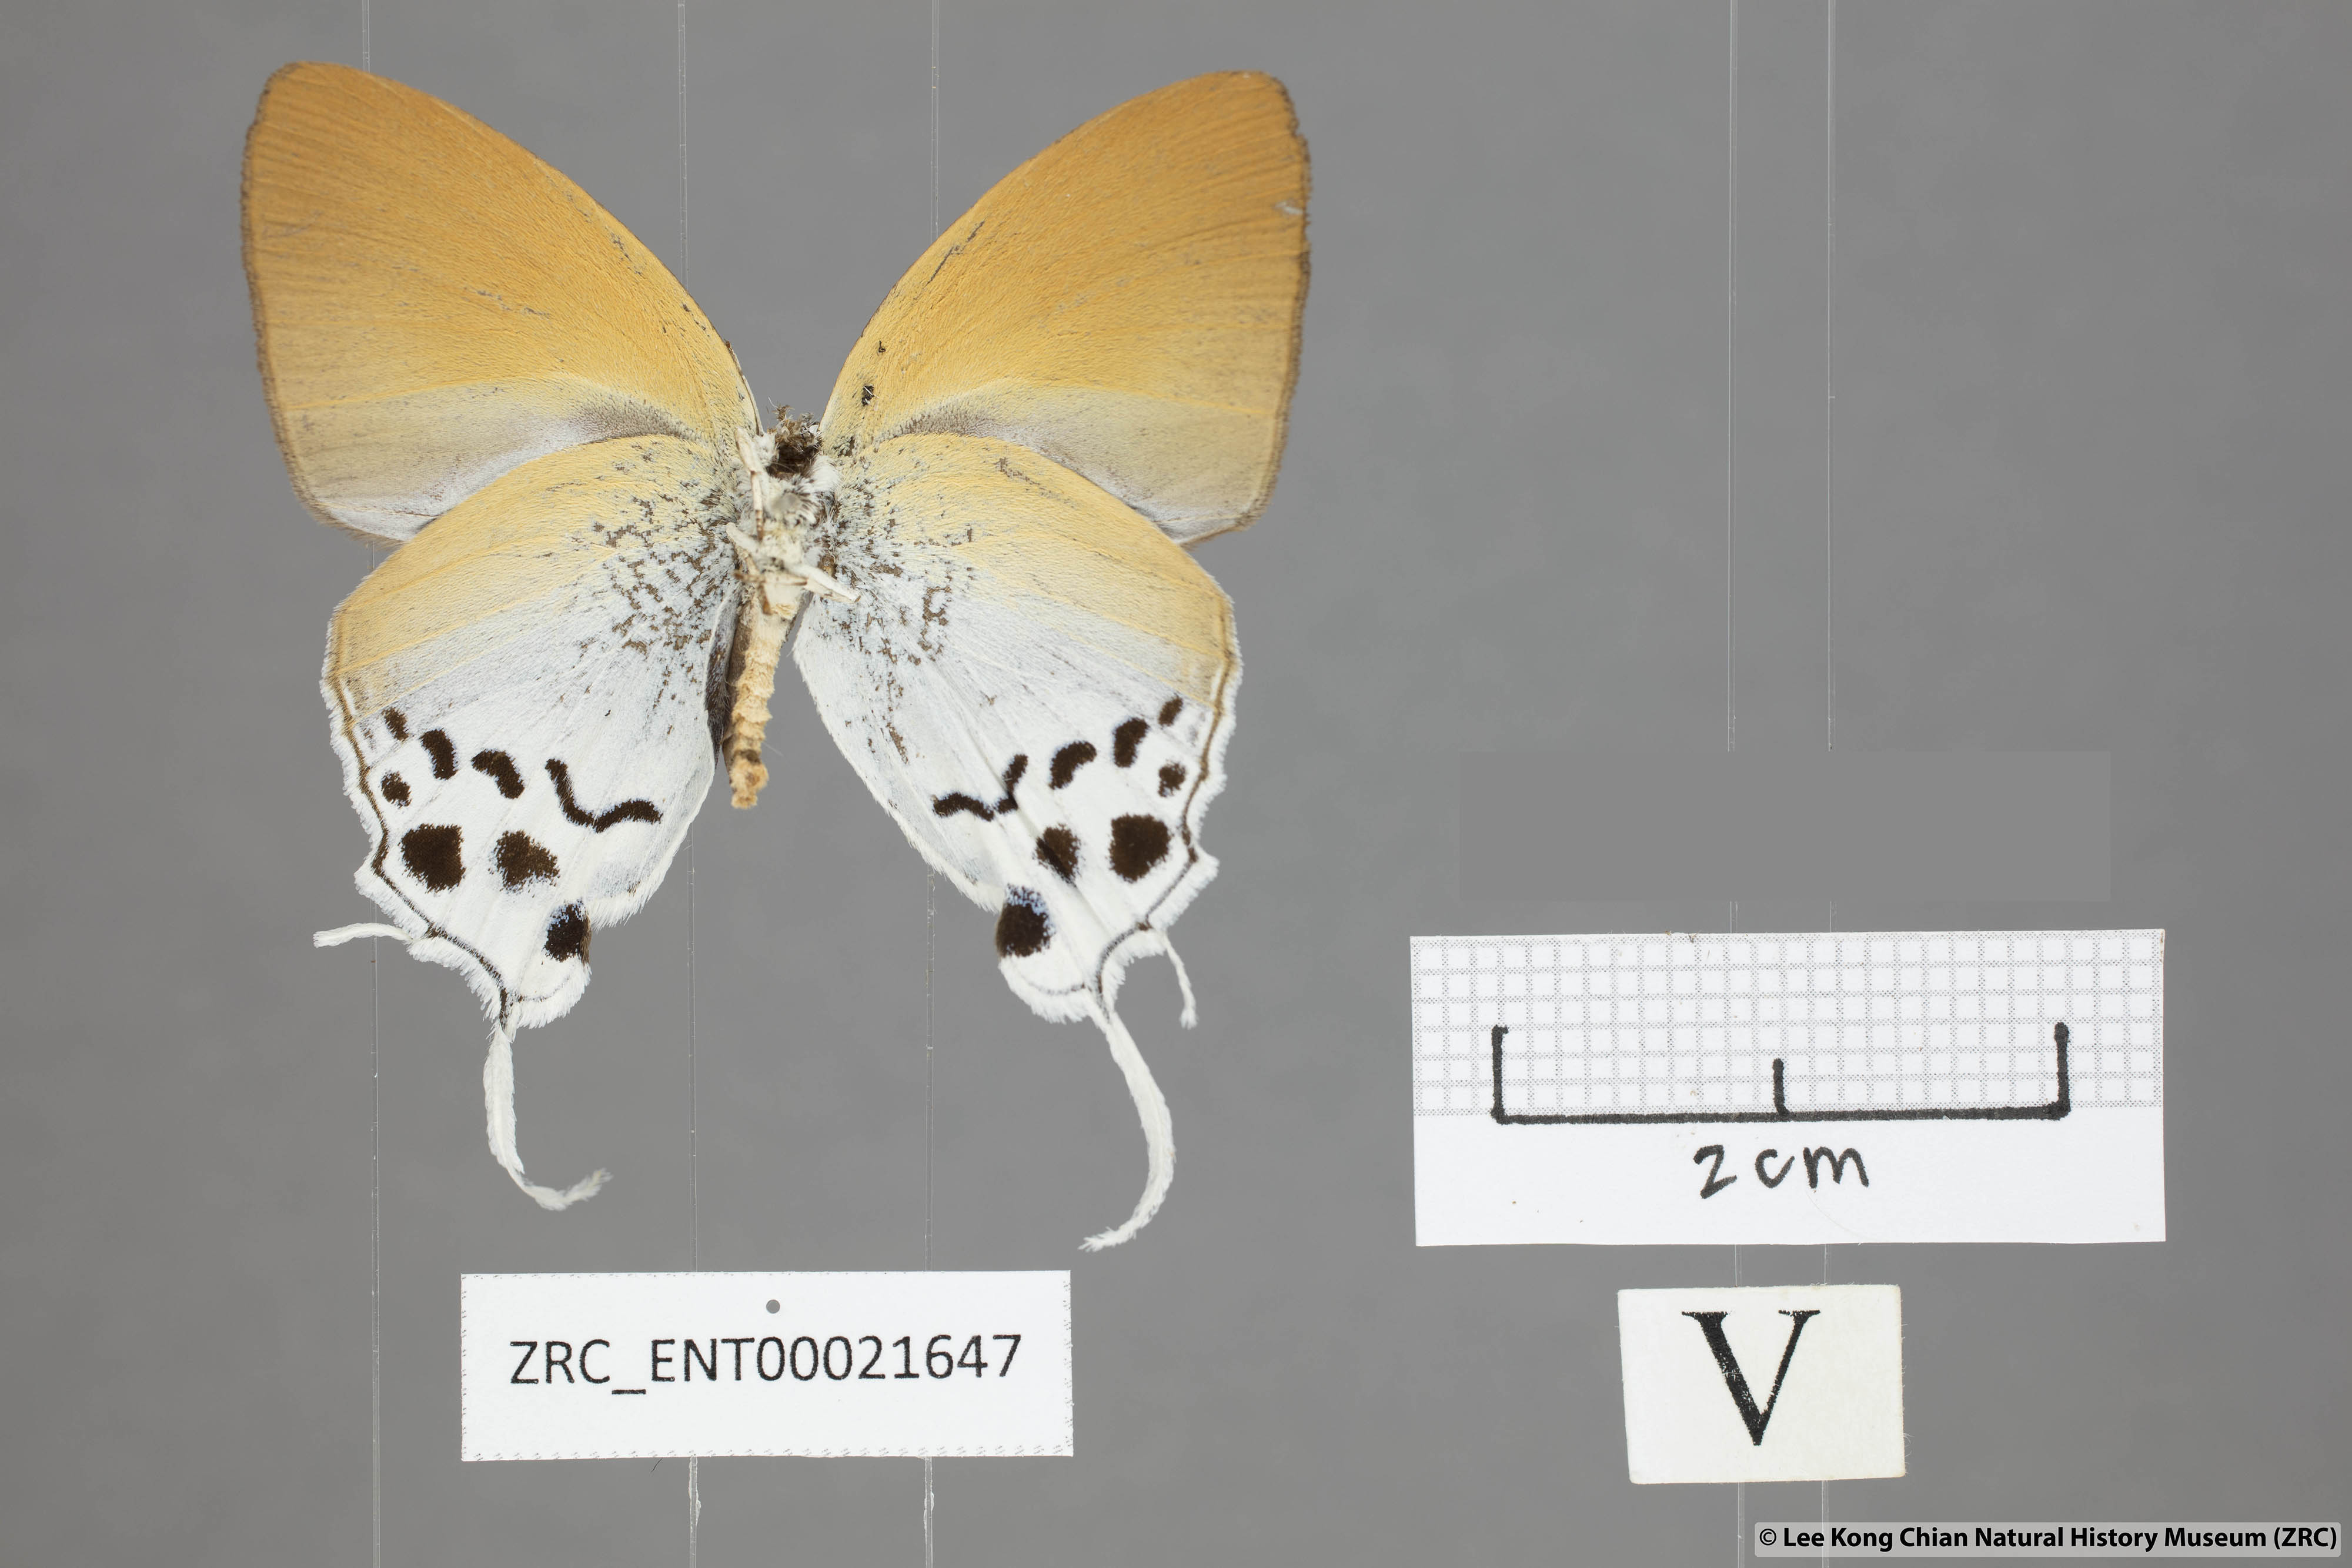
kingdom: Animalia
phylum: Arthropoda
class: Insecta
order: Lepidoptera
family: Lycaenidae
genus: Thrix
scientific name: Thrix
